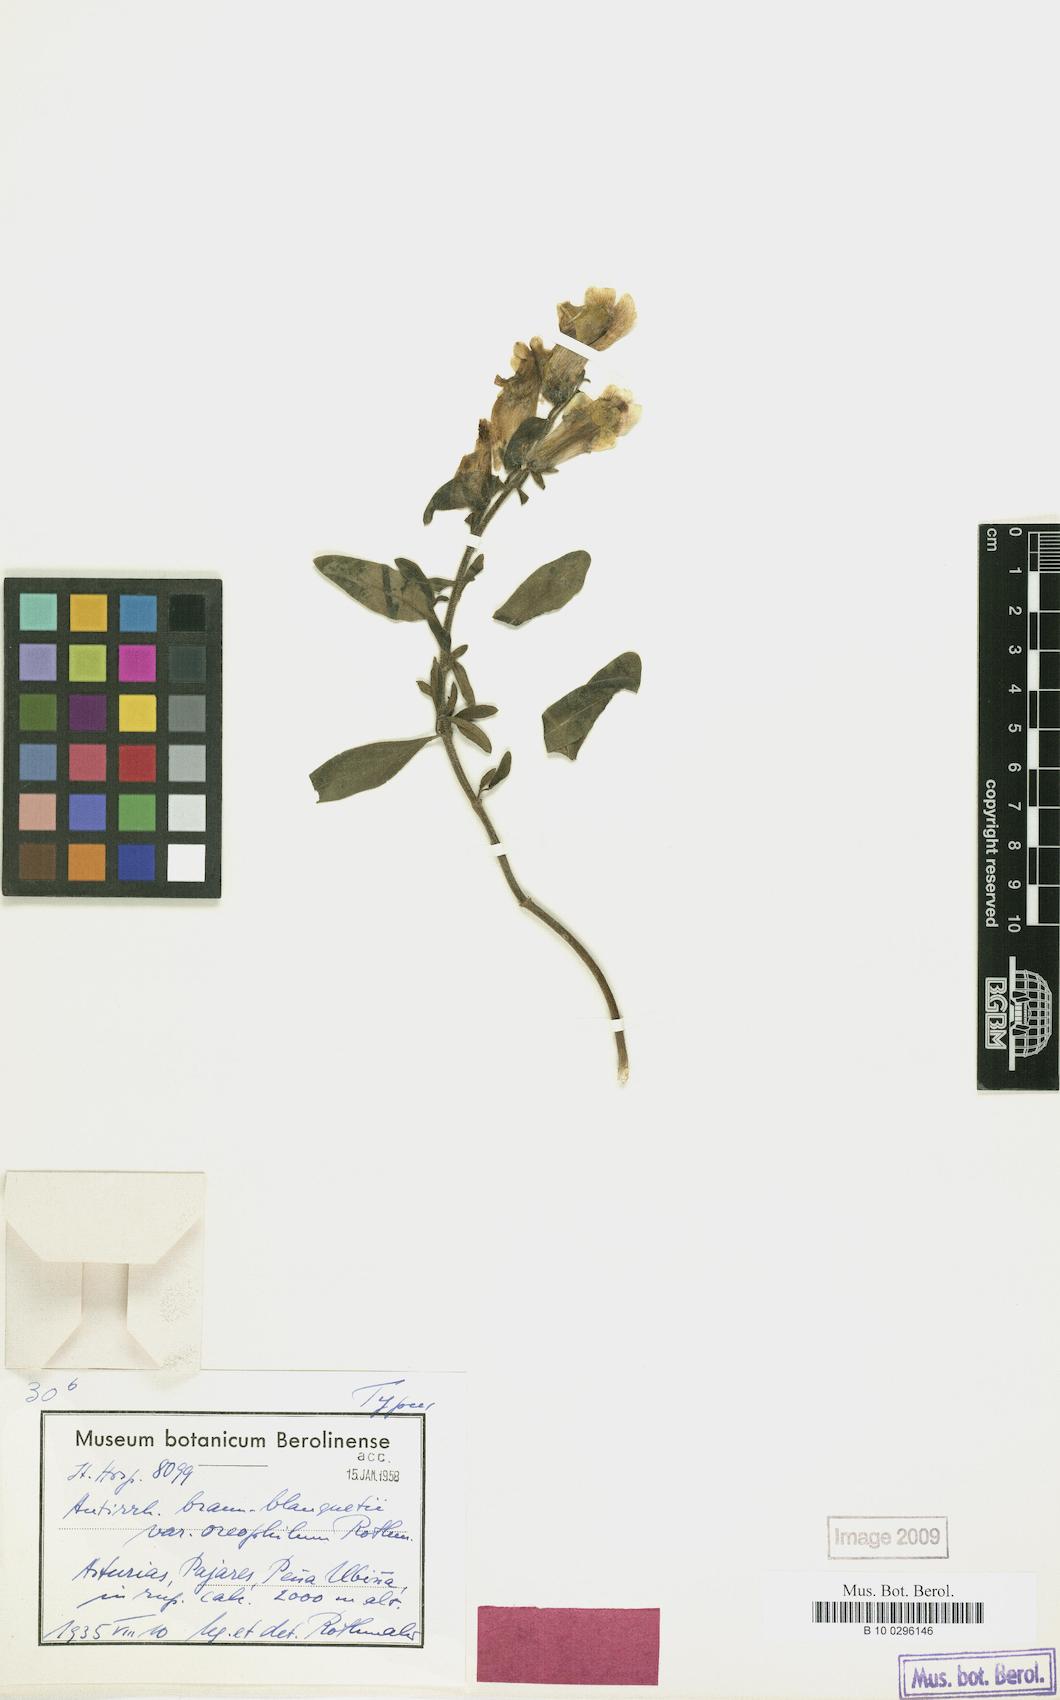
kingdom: Plantae
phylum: Tracheophyta
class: Magnoliopsida
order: Lamiales
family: Plantaginaceae
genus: Antirrhinum
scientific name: Antirrhinum braun-blanquetii
